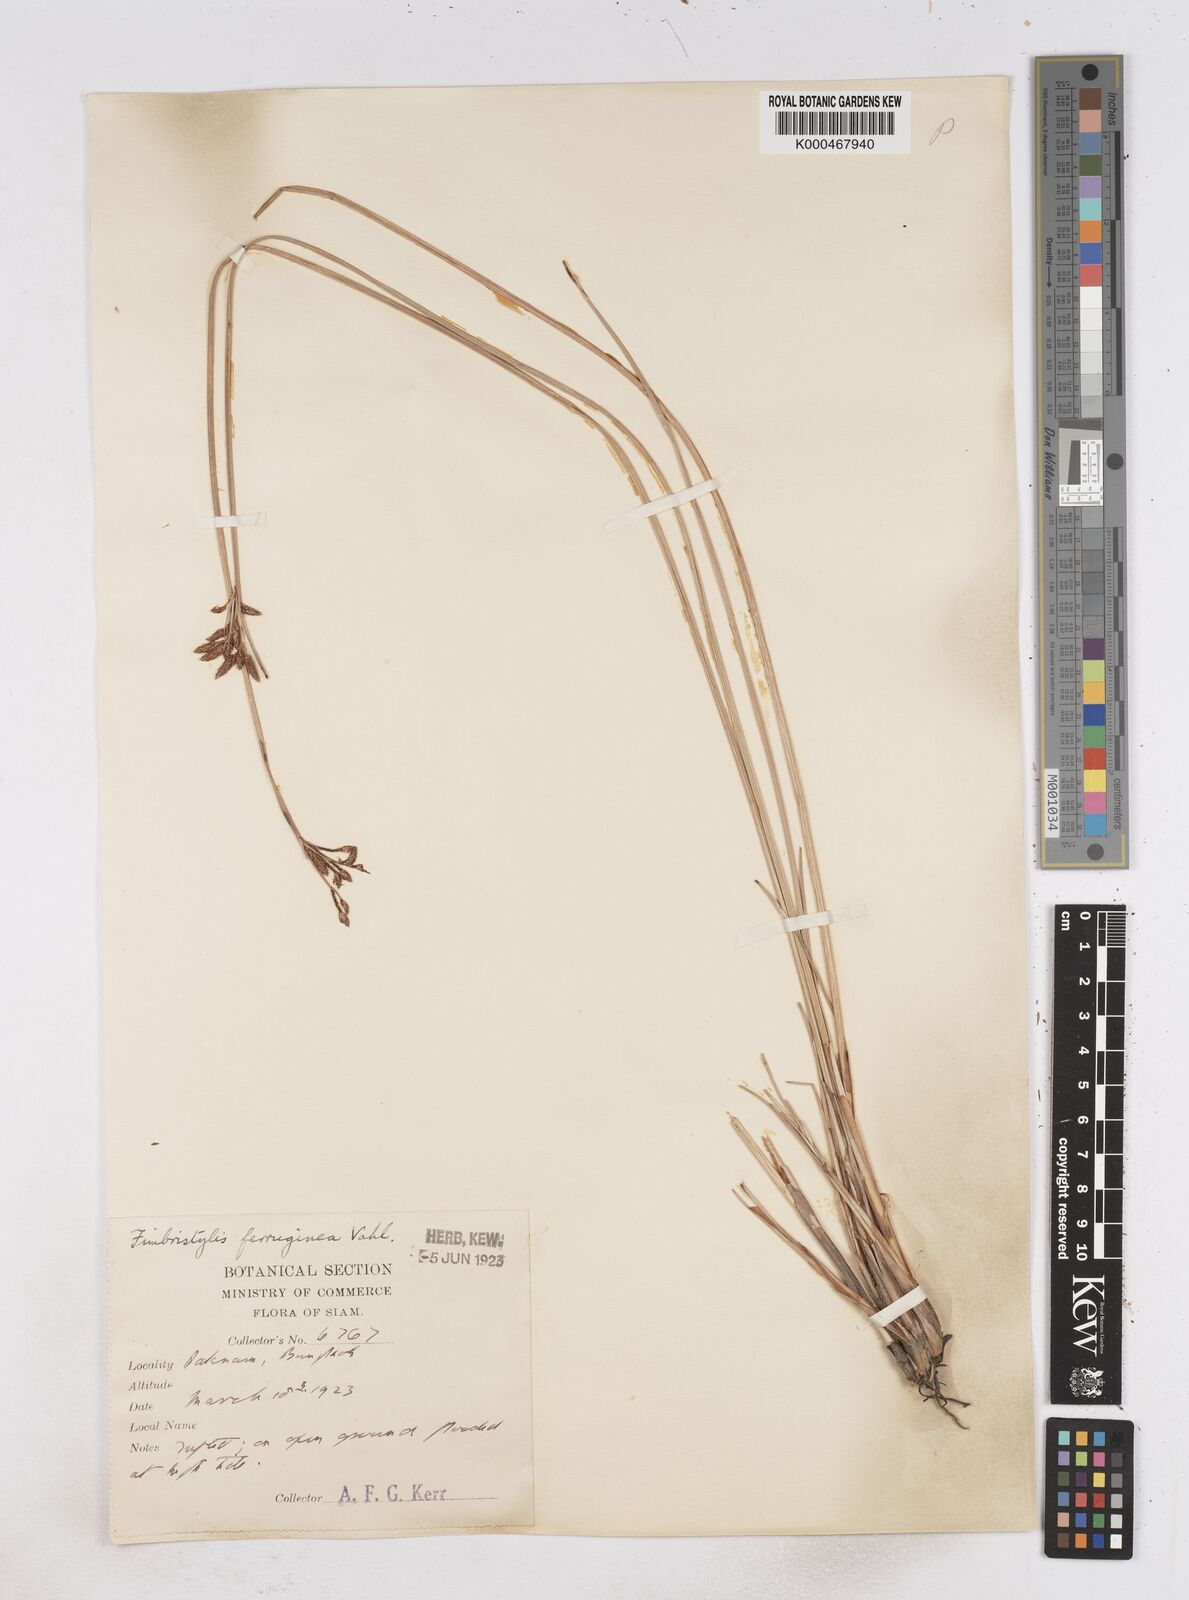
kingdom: Plantae
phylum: Tracheophyta
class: Liliopsida
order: Poales
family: Cyperaceae
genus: Fimbristylis
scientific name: Fimbristylis ferruginea
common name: West indian fimbry
